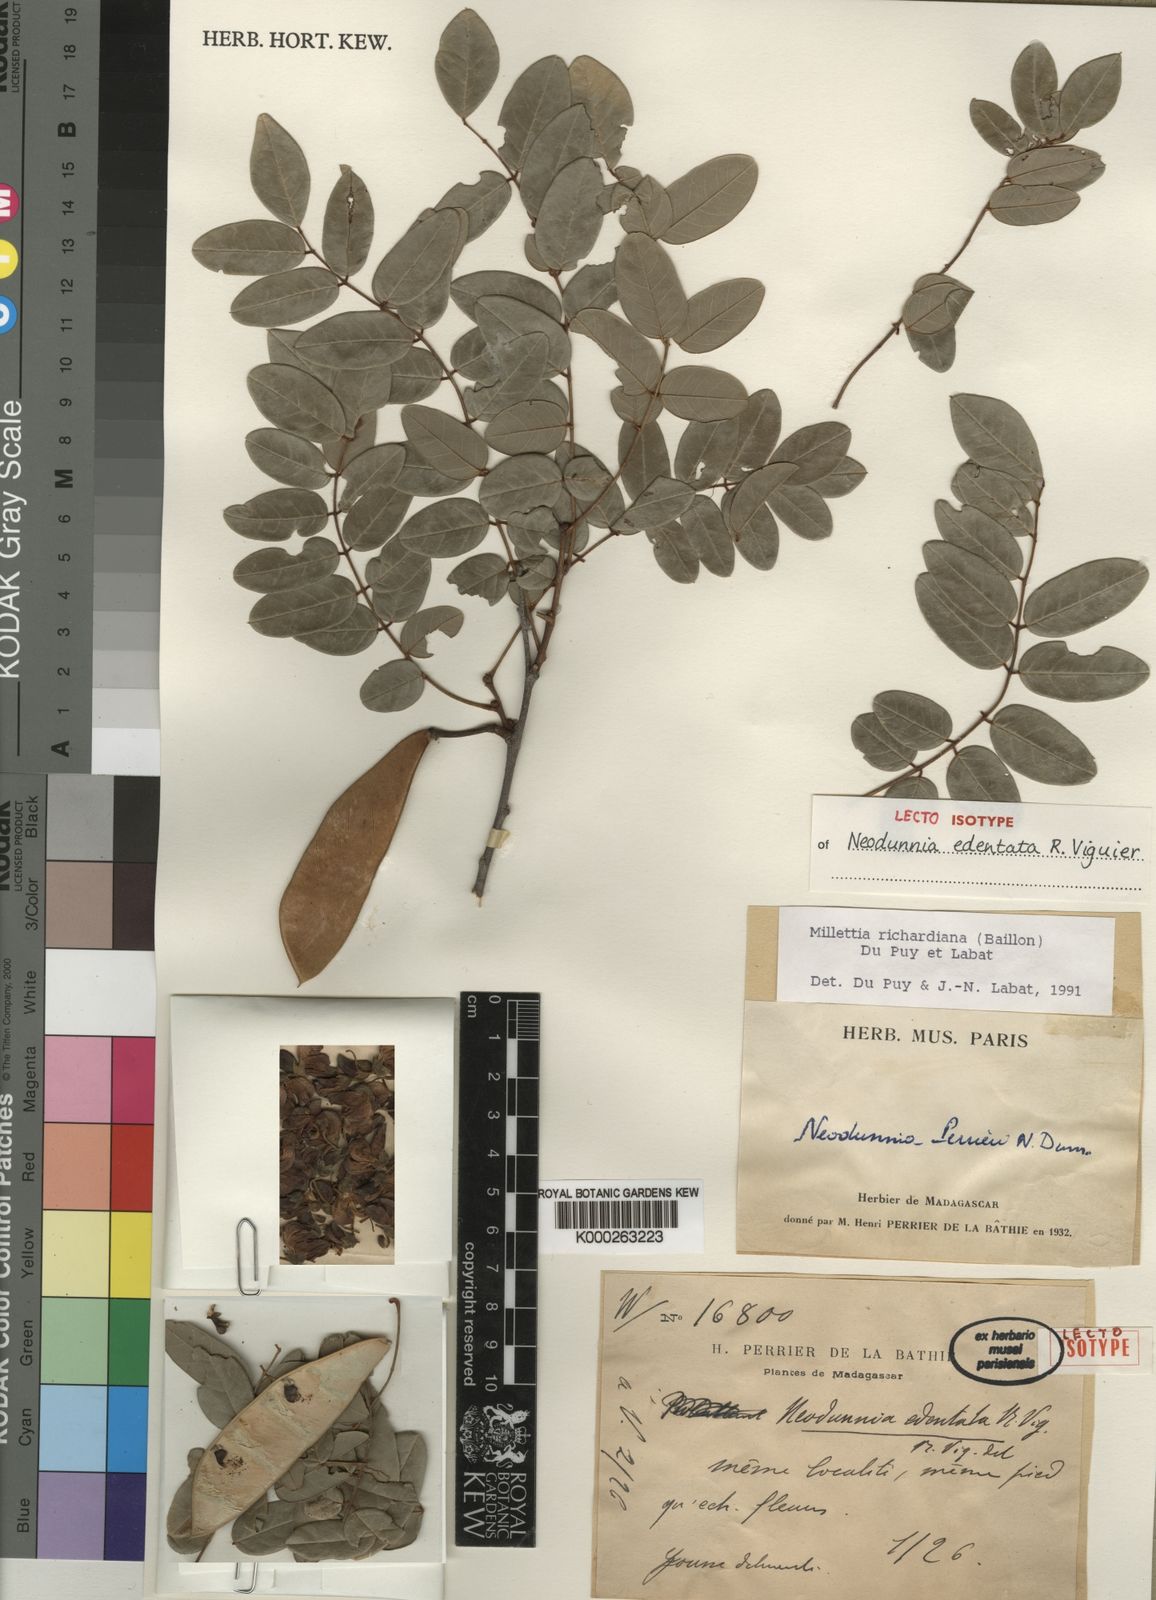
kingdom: Plantae
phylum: Tracheophyta
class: Magnoliopsida
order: Fabales
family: Fabaceae
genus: Millettia
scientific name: Millettia richardiana
